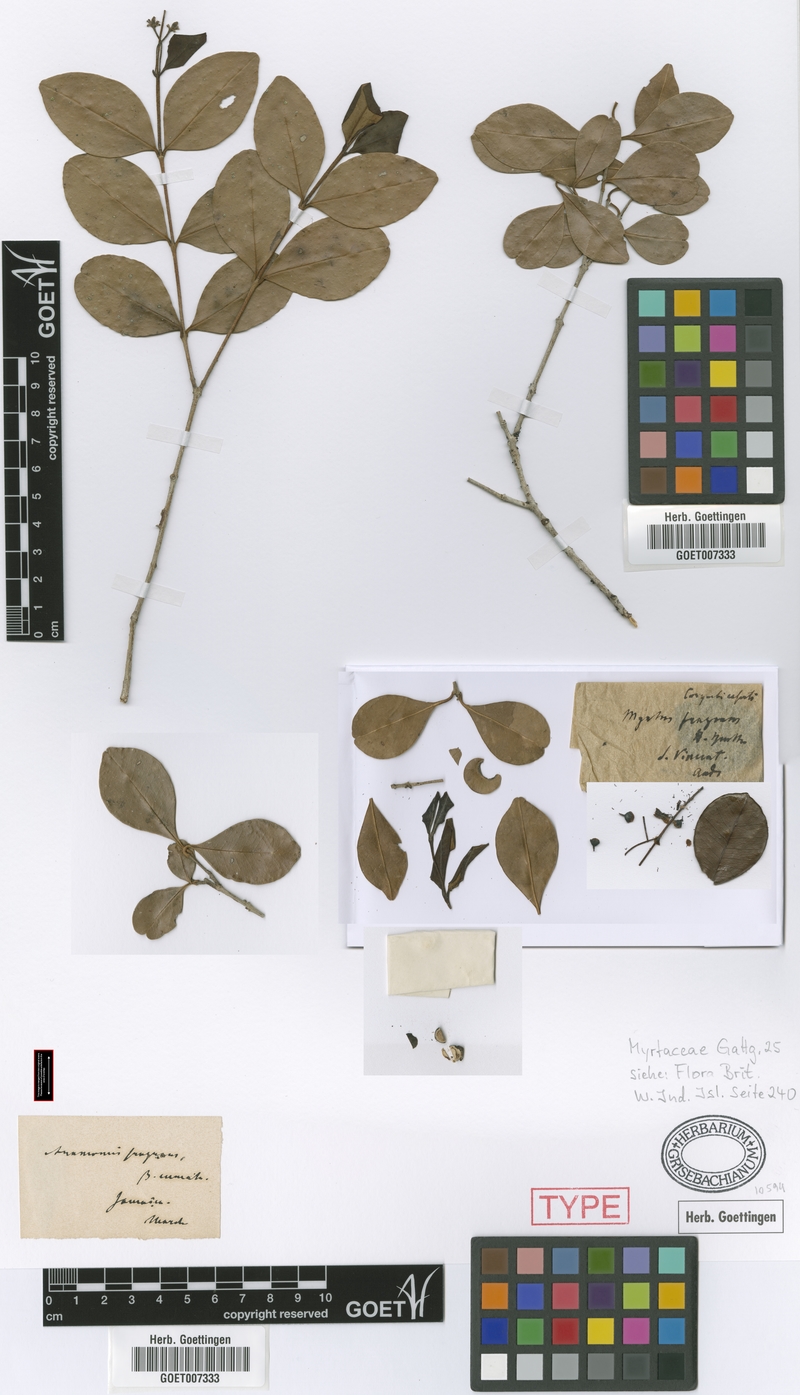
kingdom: Plantae
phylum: Tracheophyta
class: Magnoliopsida
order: Myrtales
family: Myrtaceae
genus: Myrcianthes
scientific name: Myrcianthes fragrans
